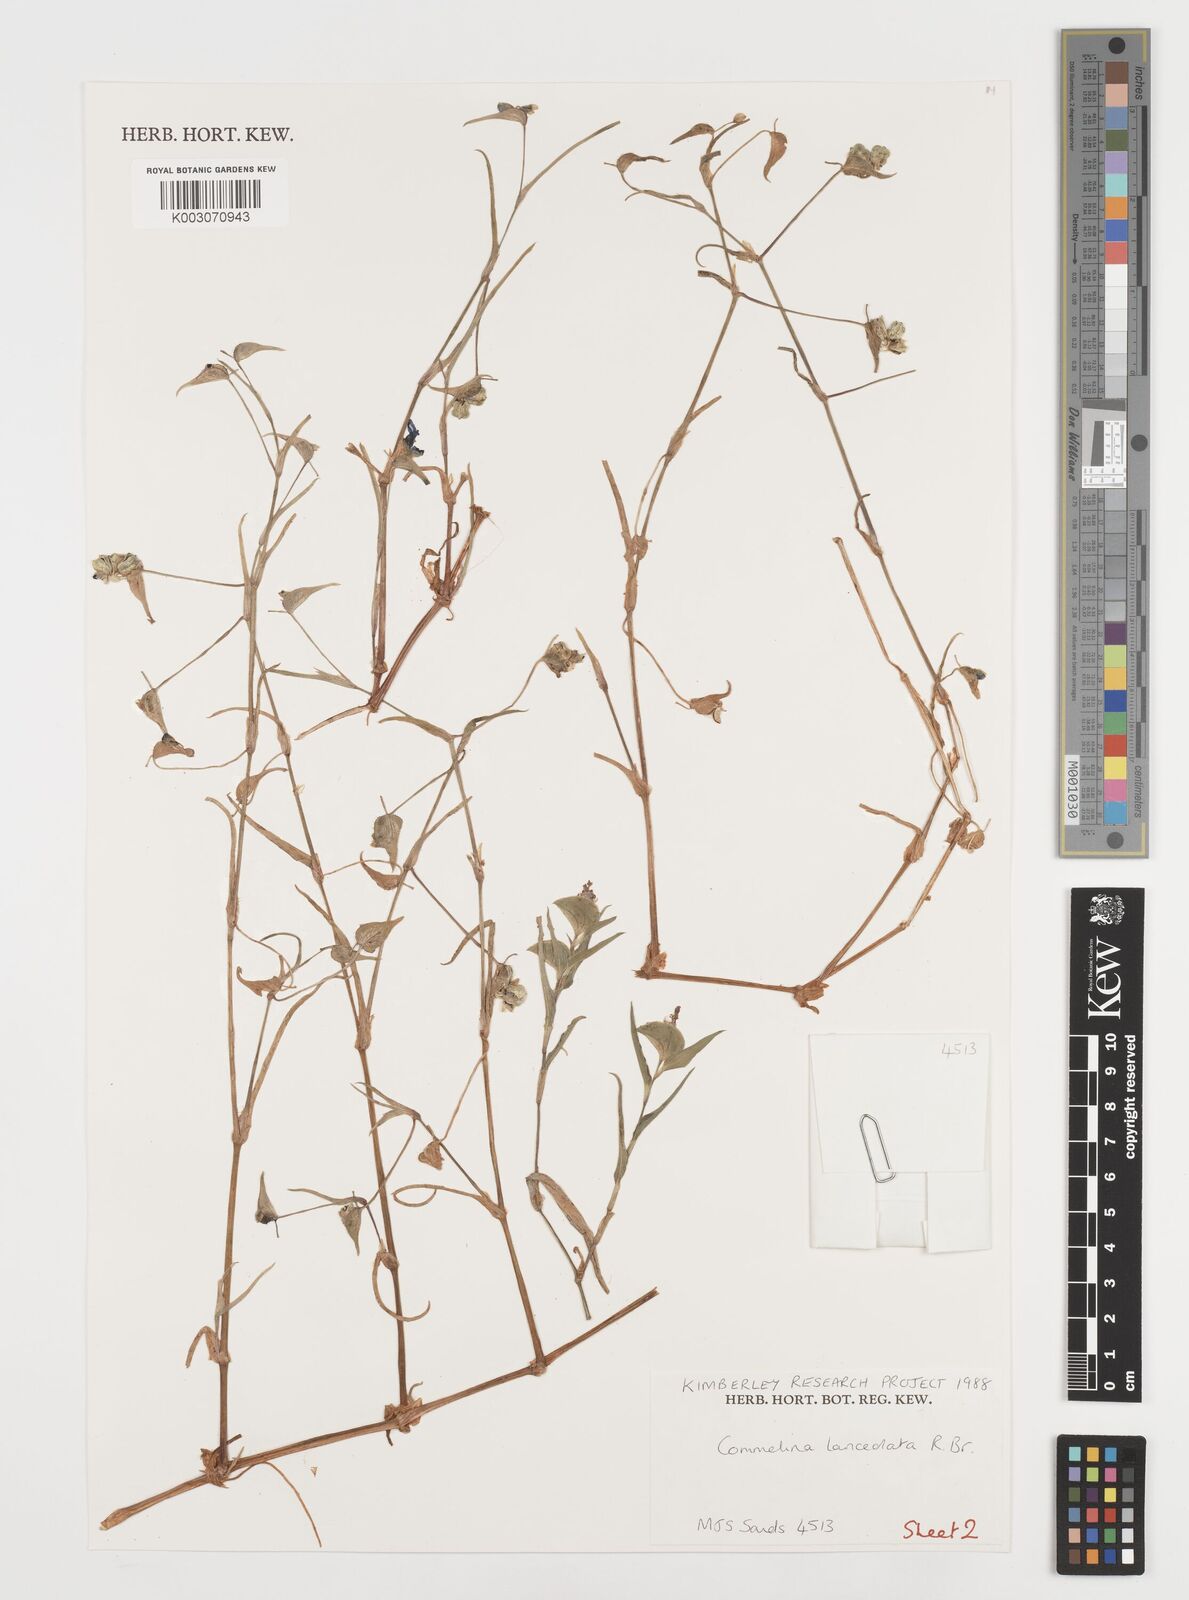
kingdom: Plantae
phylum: Tracheophyta
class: Liliopsida
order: Commelinales
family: Commelinaceae
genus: Commelina
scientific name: Commelina lanceolata
